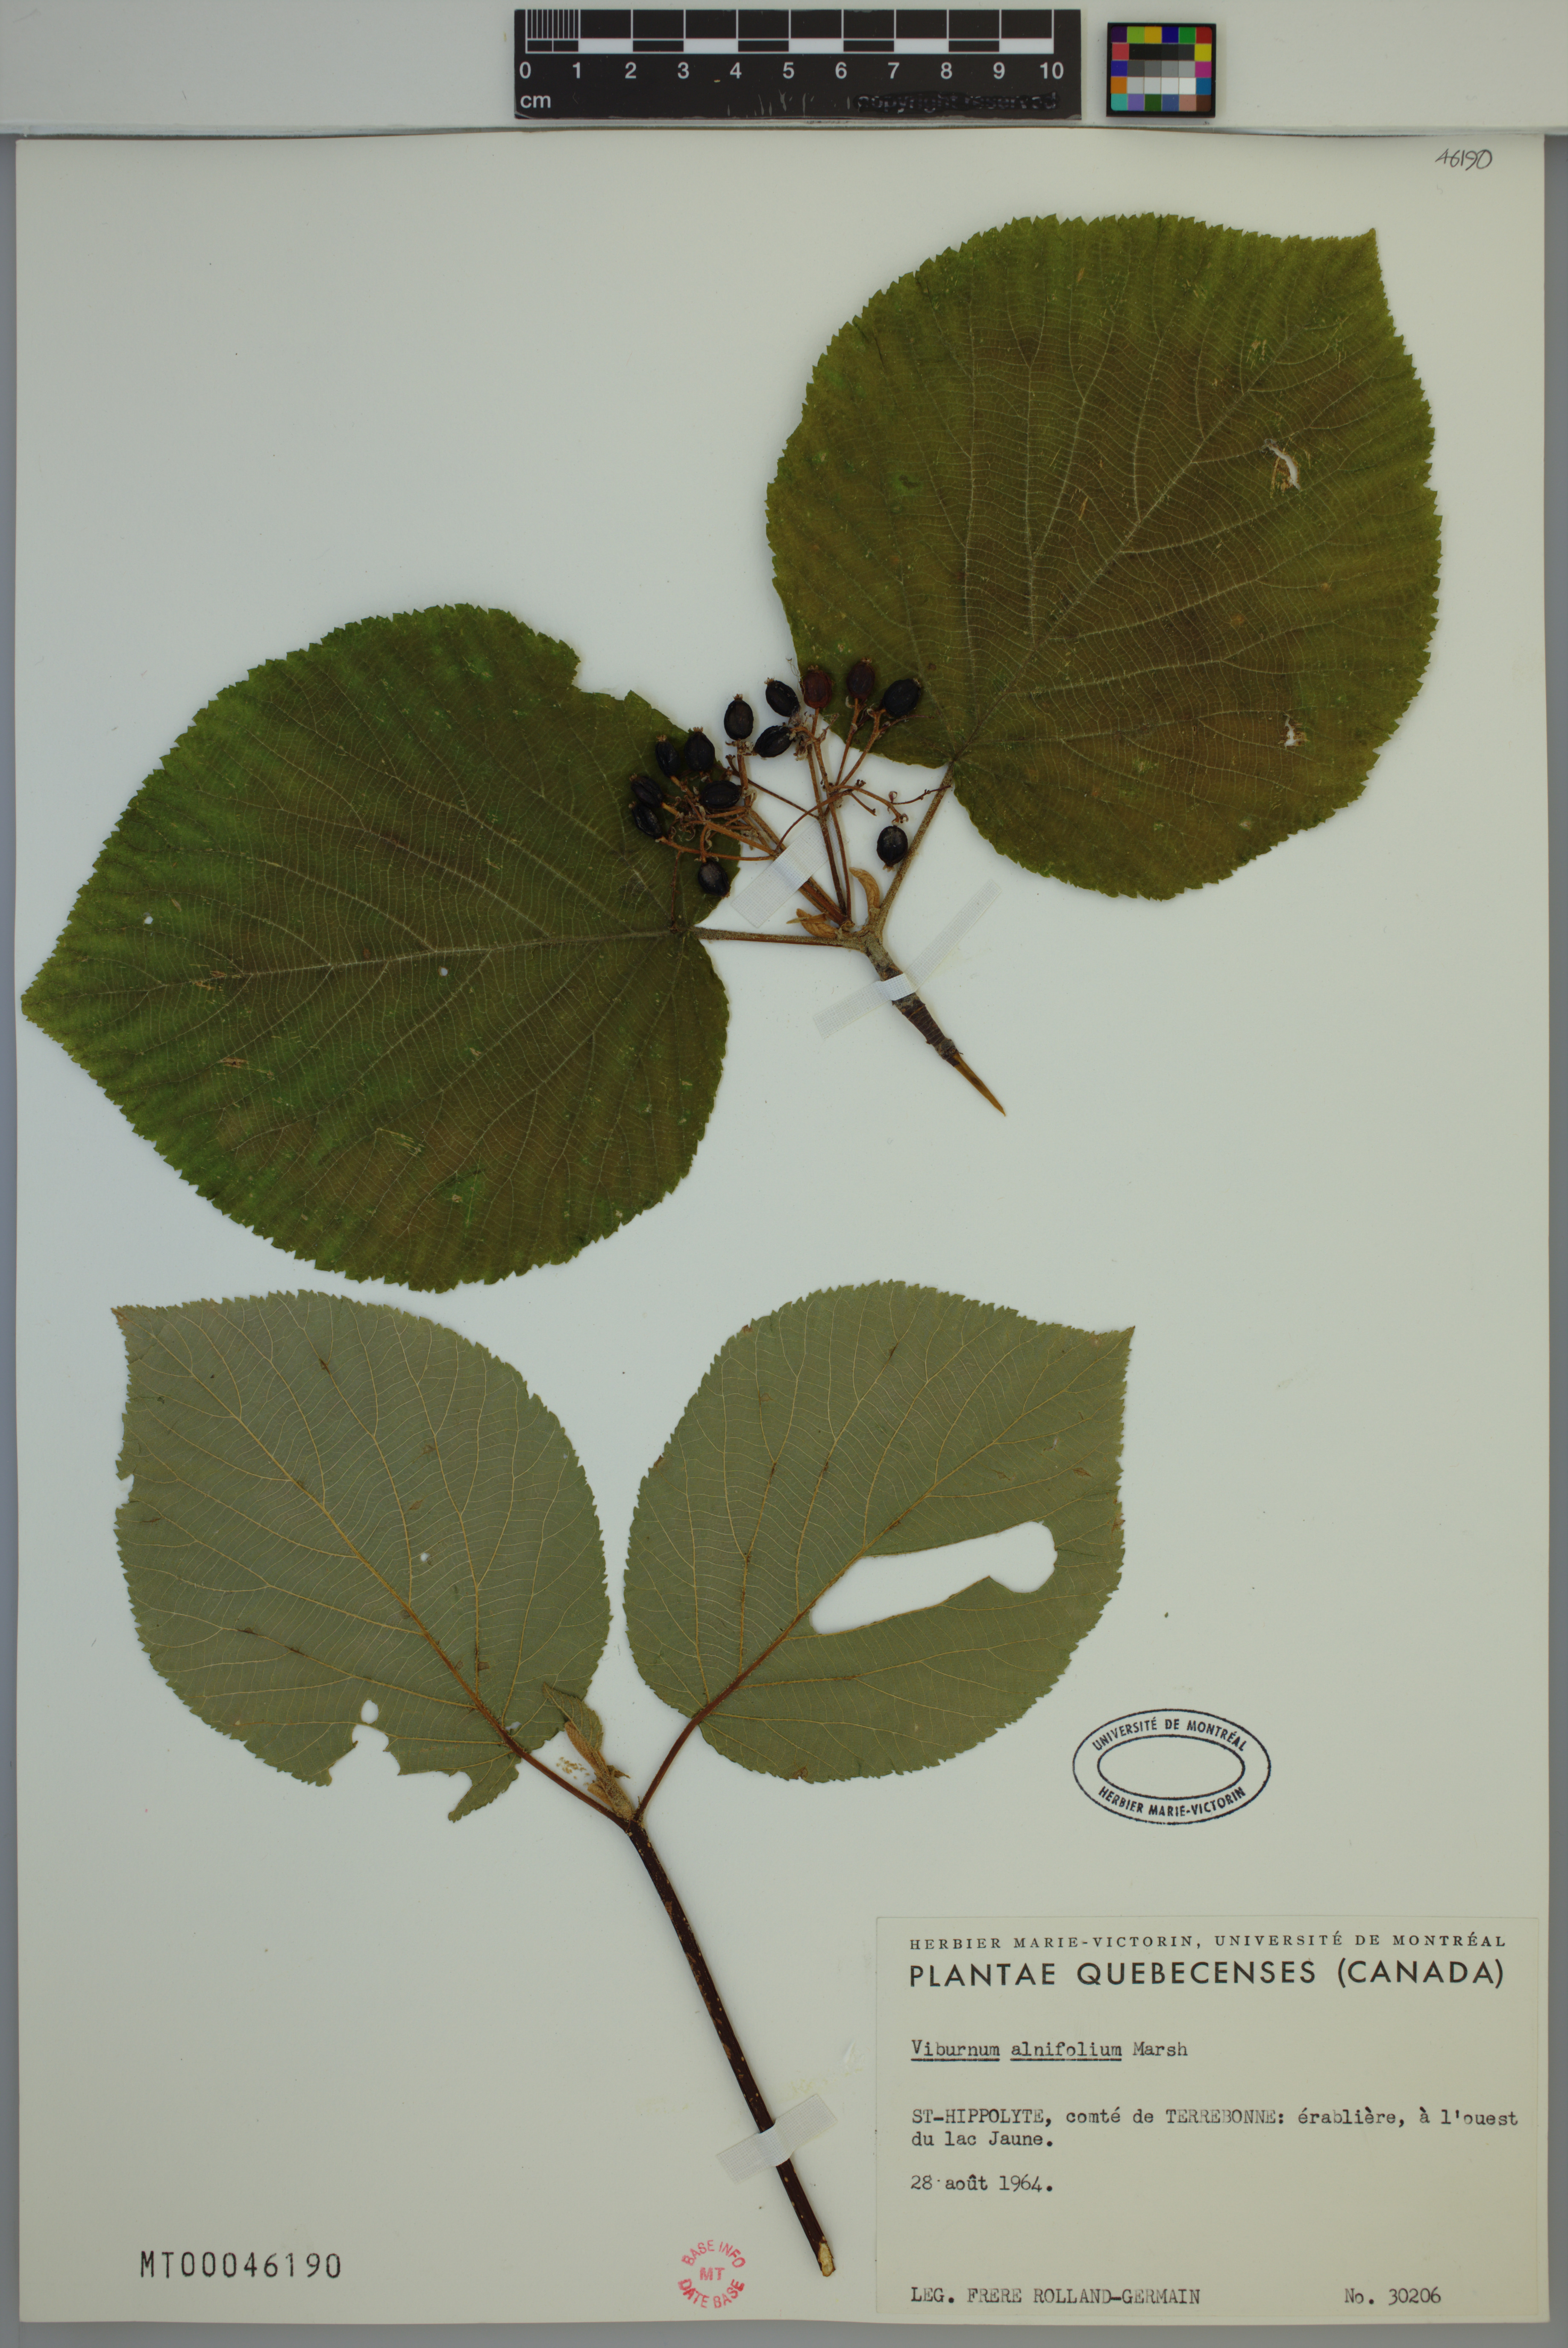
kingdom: Plantae
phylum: Tracheophyta
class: Magnoliopsida
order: Dipsacales
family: Viburnaceae
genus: Viburnum
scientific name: Viburnum lantanoides
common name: Hobblebush
